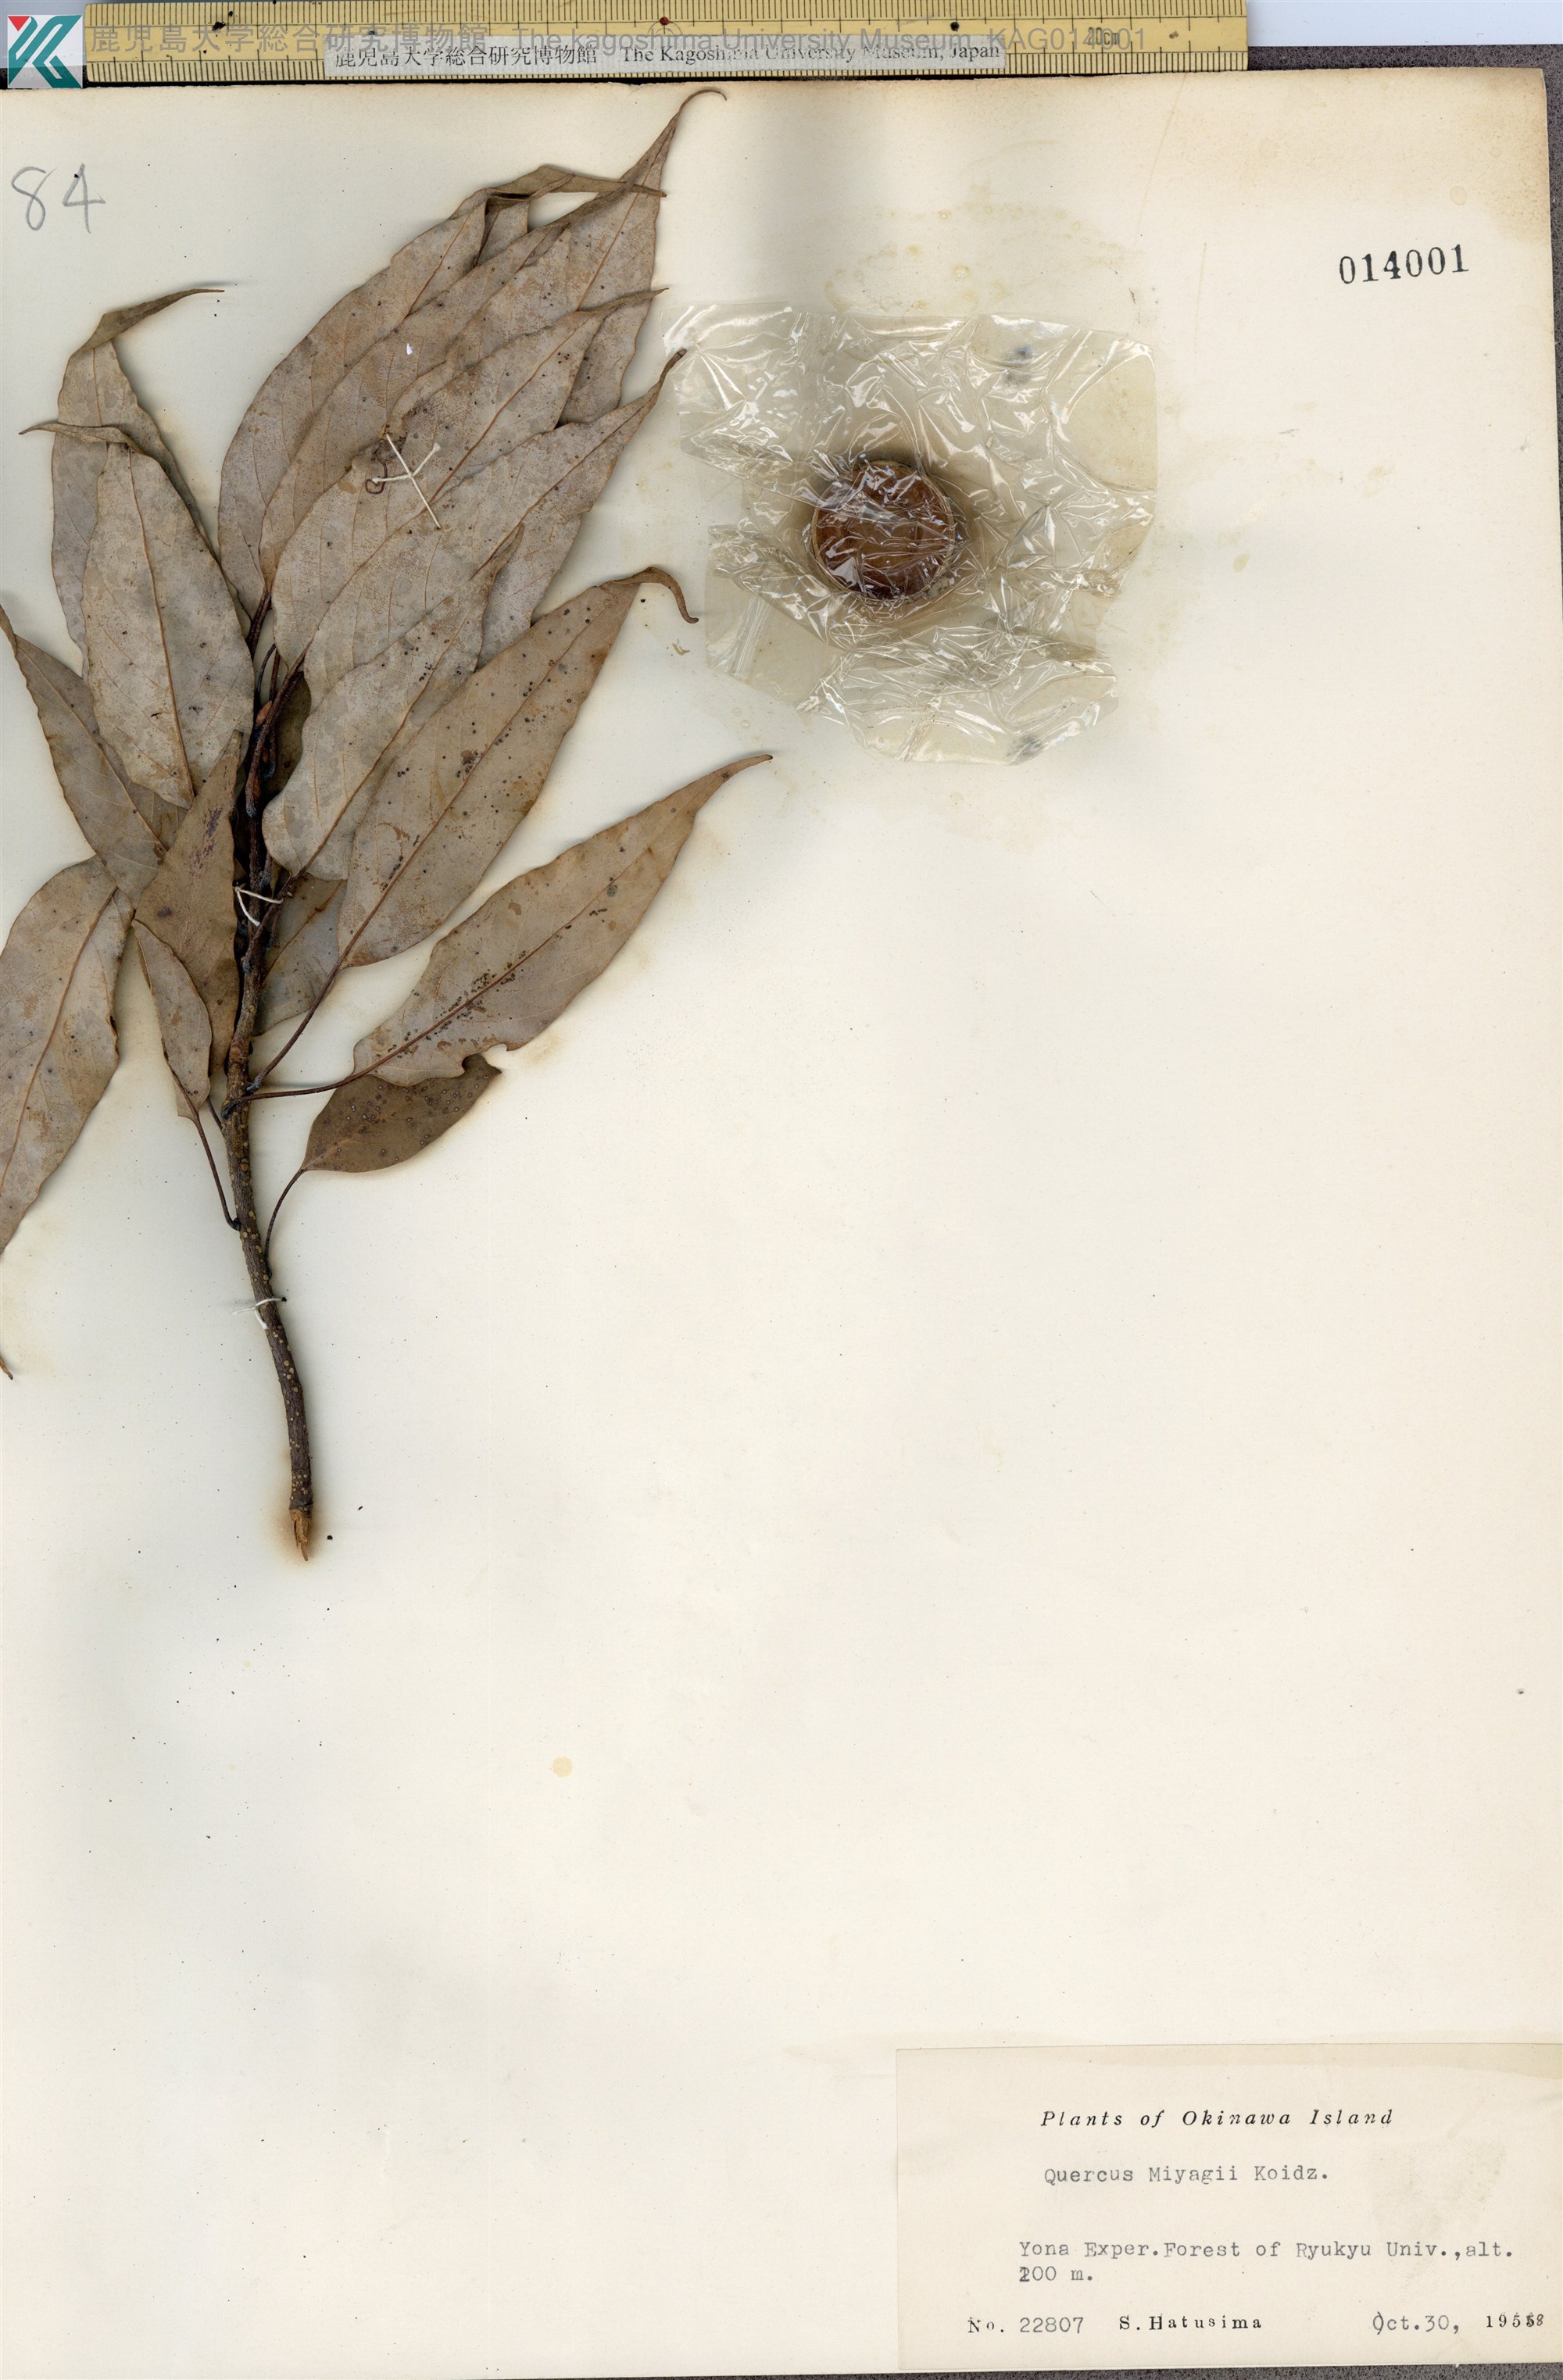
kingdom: Plantae
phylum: Tracheophyta
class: Magnoliopsida
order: Fagales
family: Fagaceae
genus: Quercus
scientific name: Quercus miyagii
